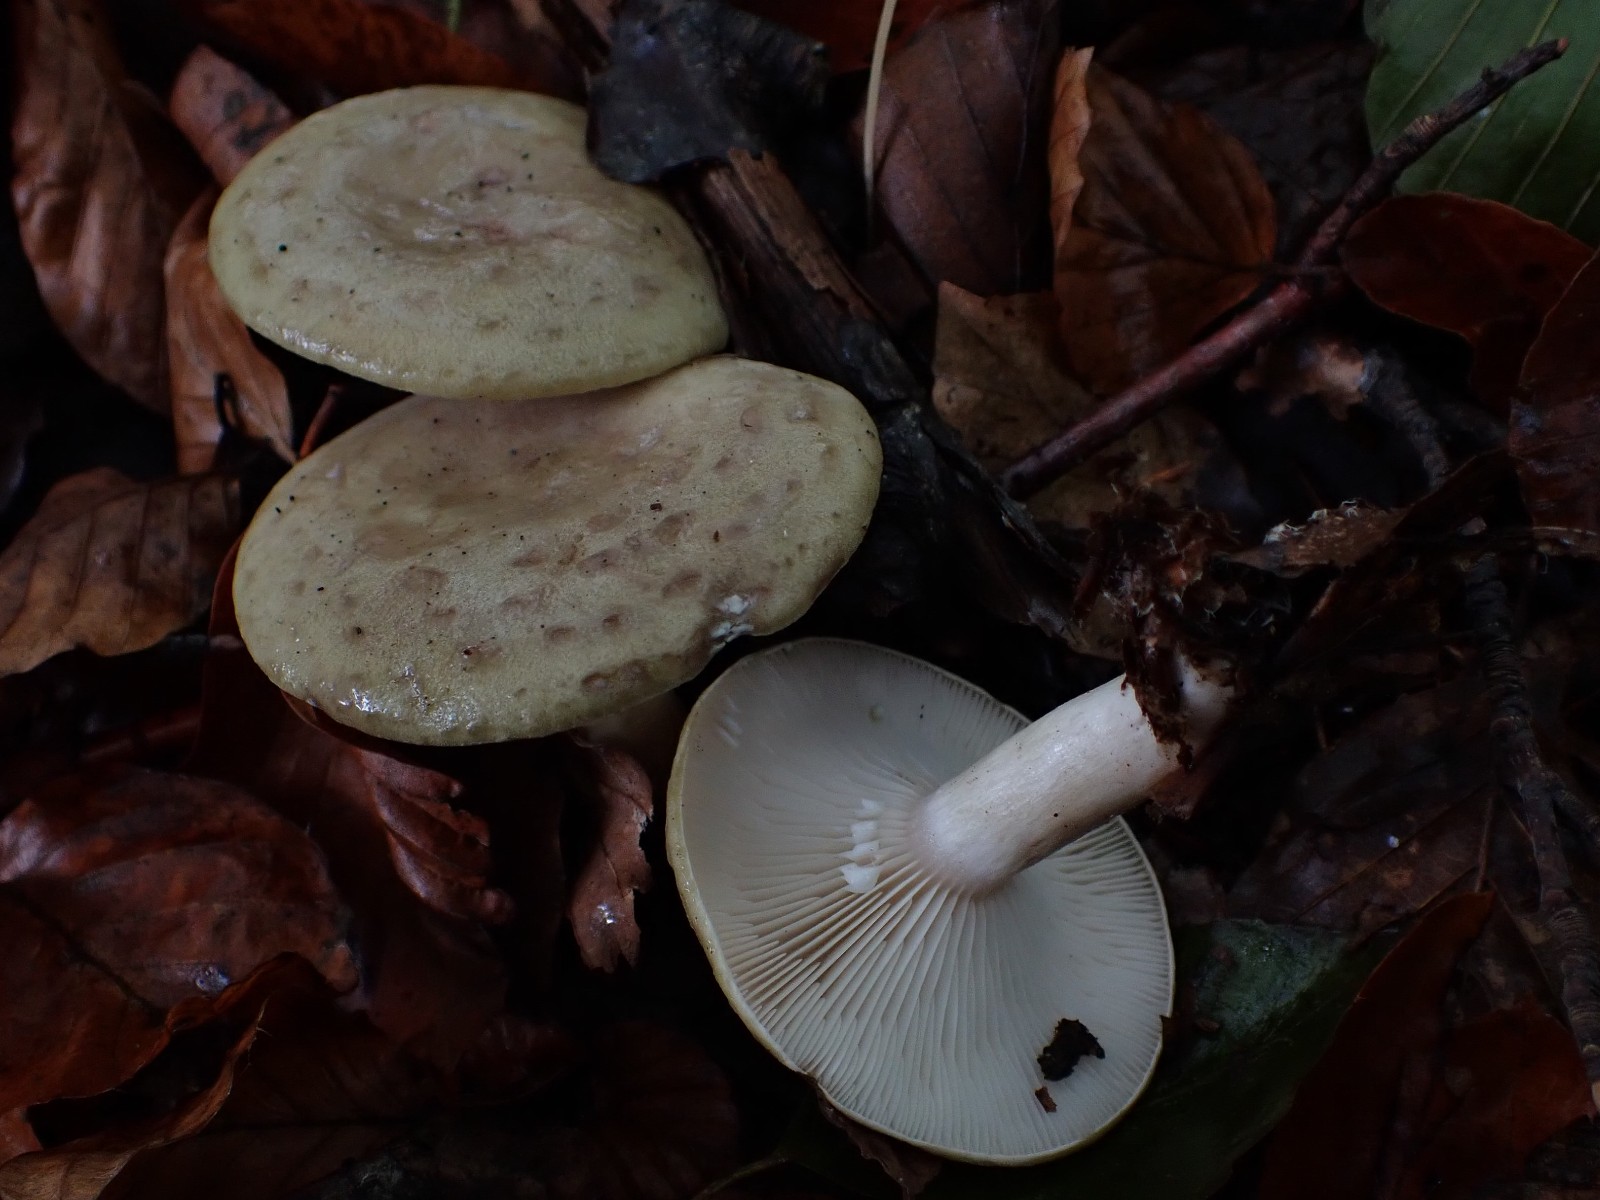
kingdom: Fungi
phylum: Basidiomycota
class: Agaricomycetes
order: Russulales
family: Russulaceae
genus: Lactarius
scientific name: Lactarius blennius
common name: dråbeplettet mælkehat
